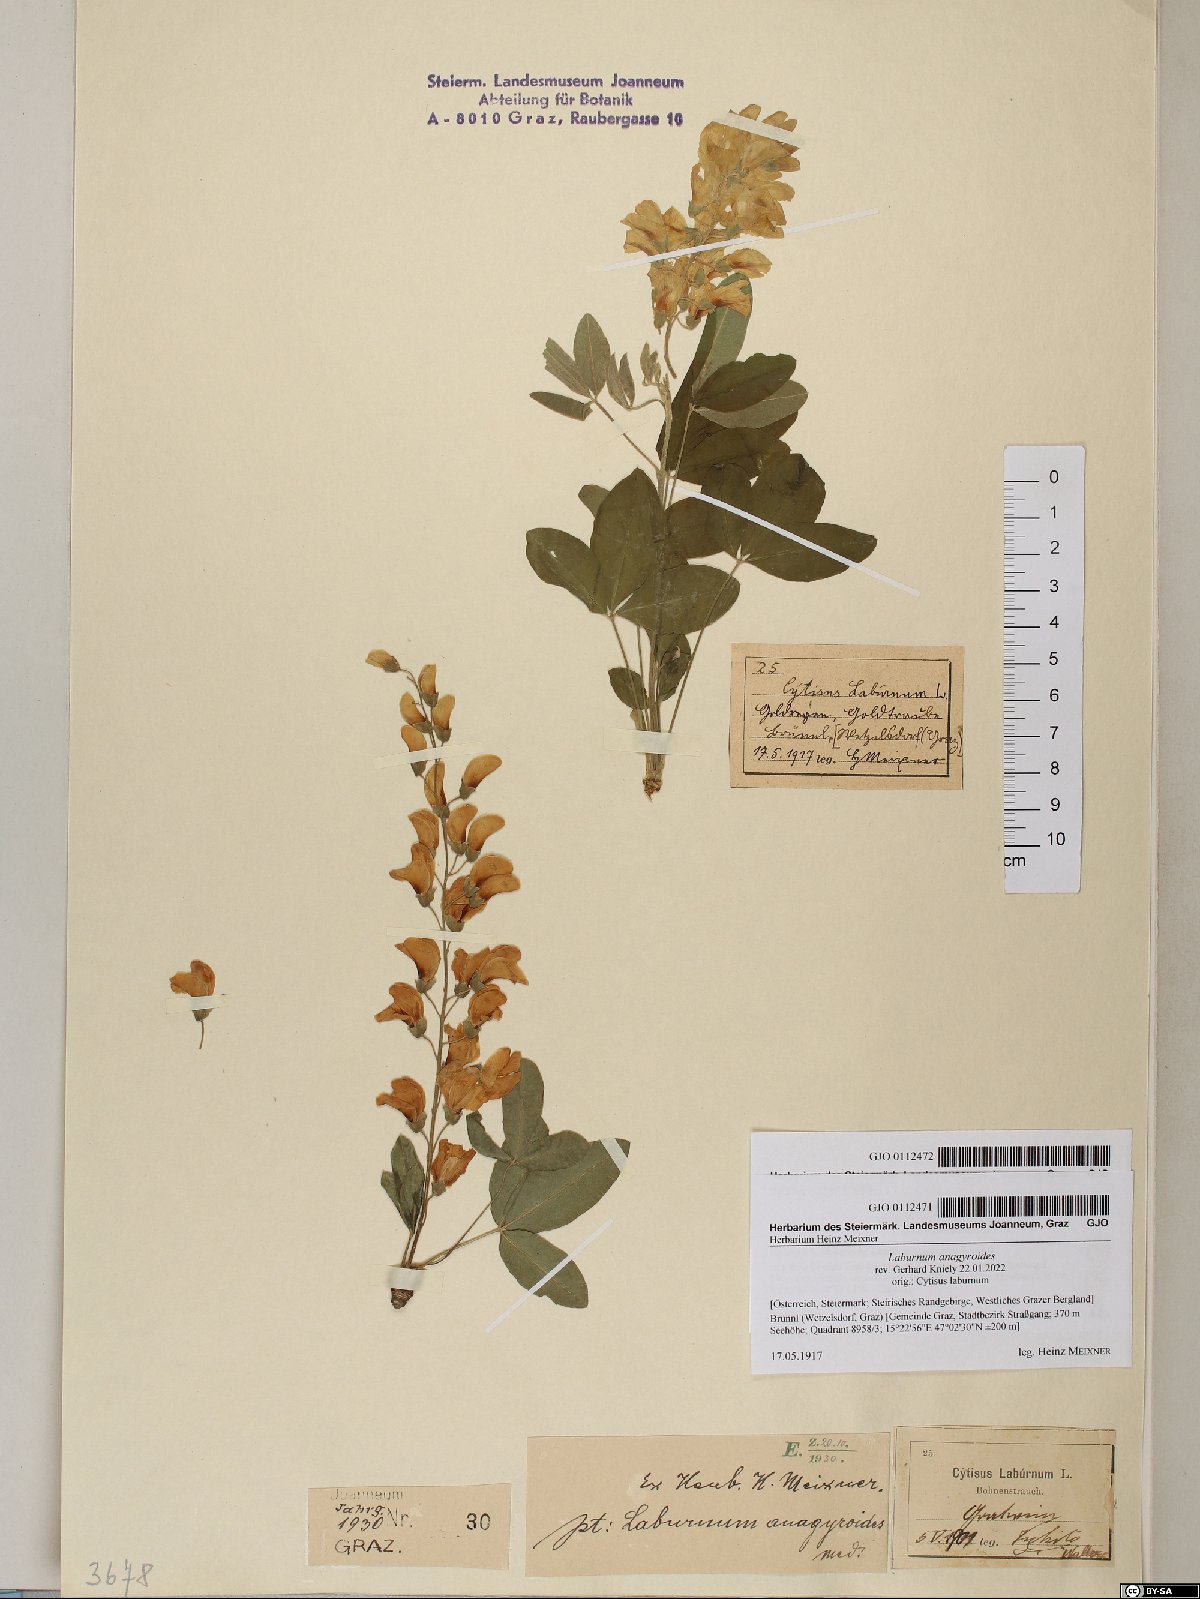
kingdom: Plantae
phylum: Tracheophyta
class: Magnoliopsida
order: Fabales
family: Fabaceae
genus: Laburnum
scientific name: Laburnum anagyroides
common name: Laburnum
